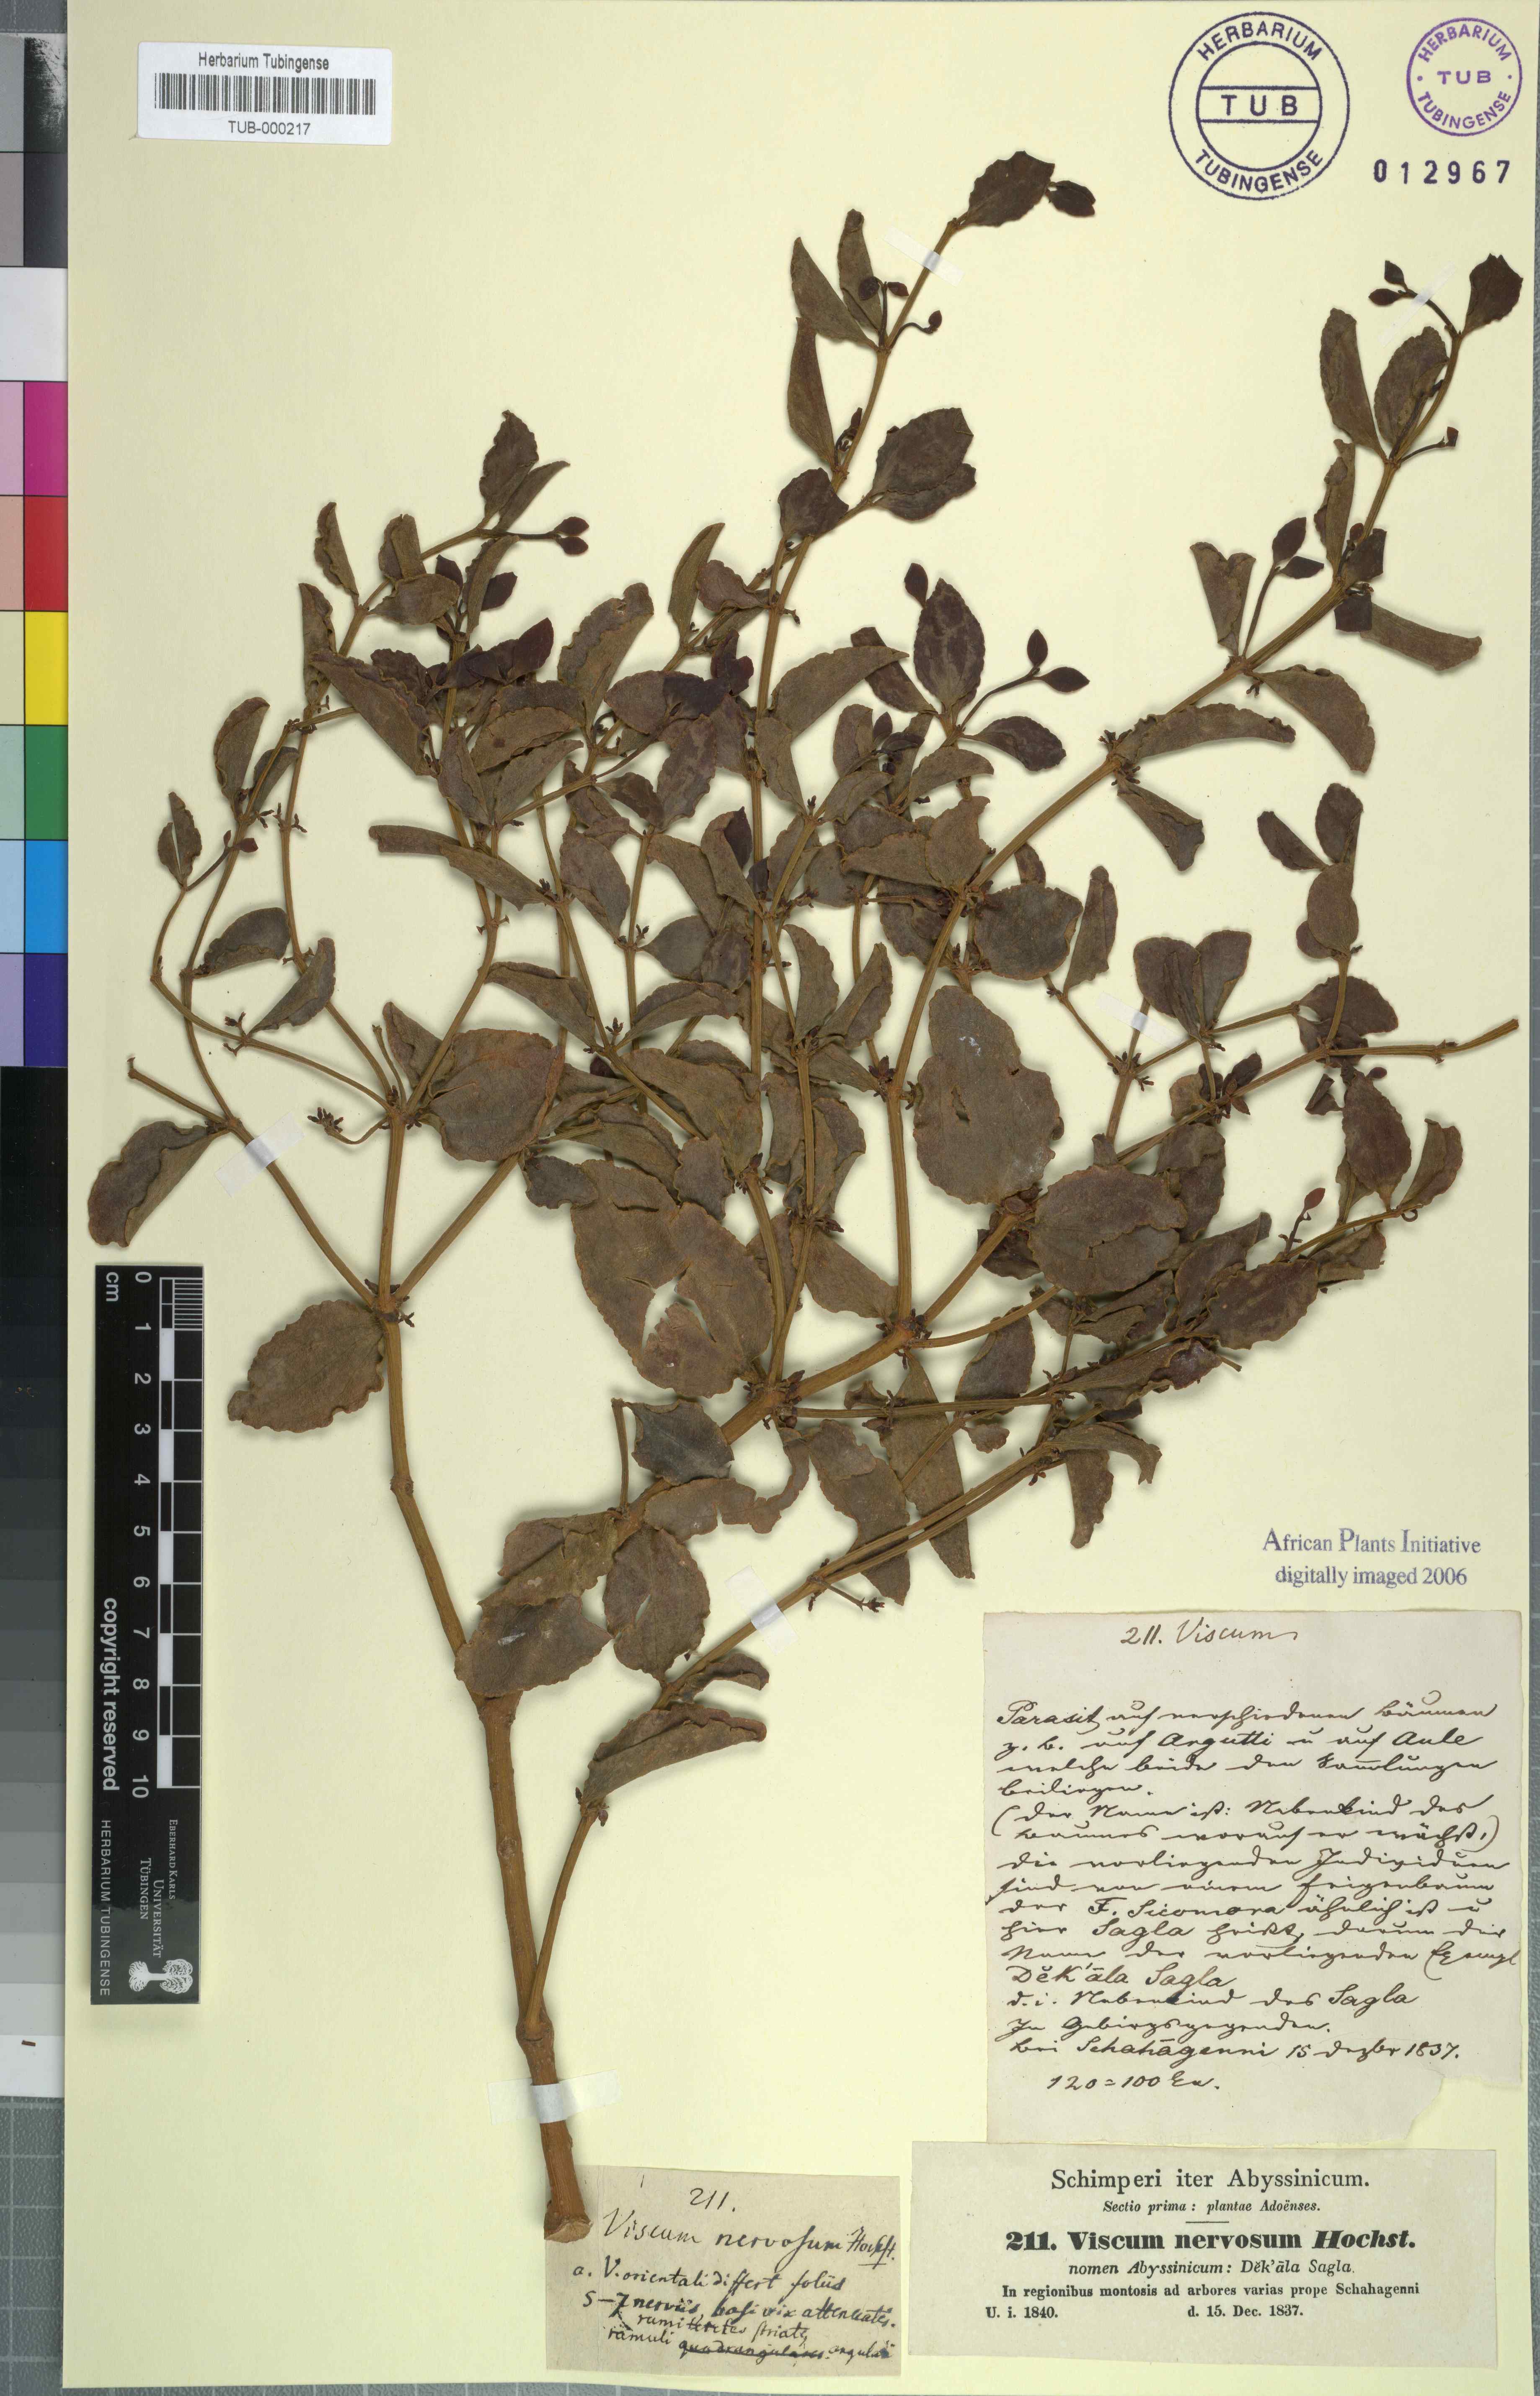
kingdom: Plantae
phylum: Tracheophyta
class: Magnoliopsida
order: Santalales
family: Viscaceae
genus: Viscum
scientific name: Viscum triflorum
